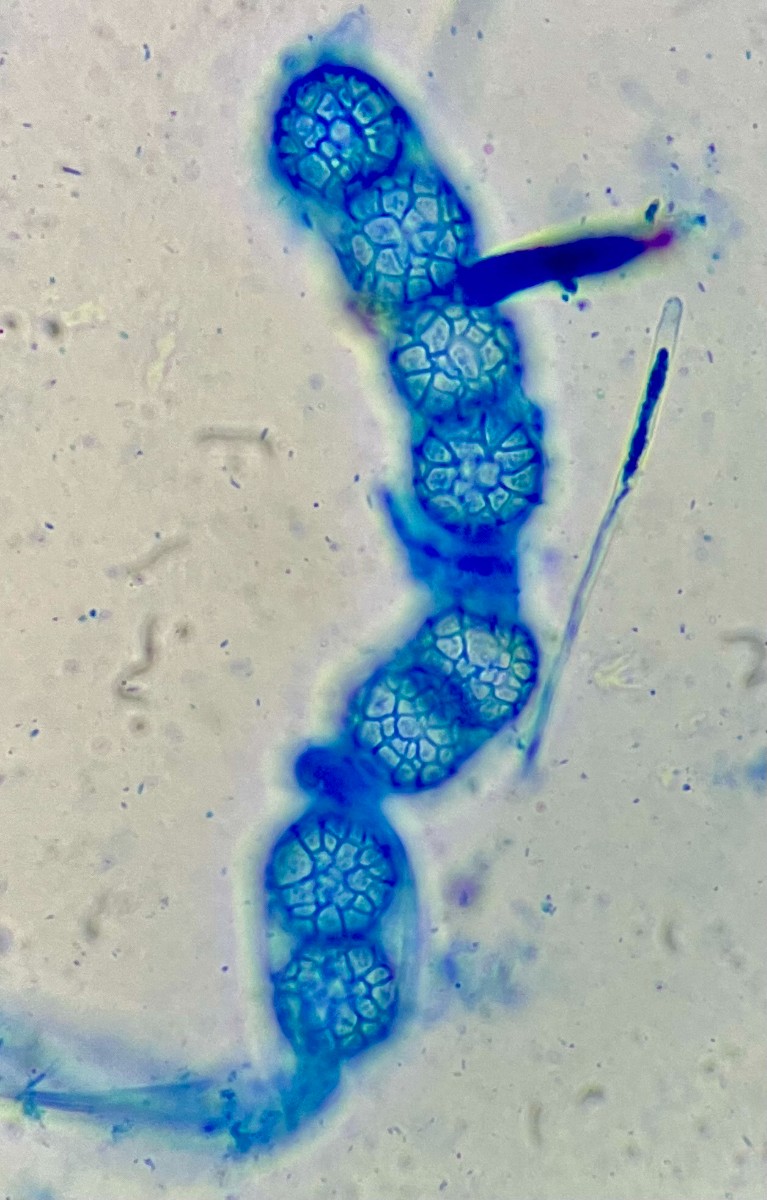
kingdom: Fungi
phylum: Ascomycota
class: Pezizomycetes
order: Pezizales
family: Pyronemataceae
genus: Lamprospora
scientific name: Lamprospora rugensis
